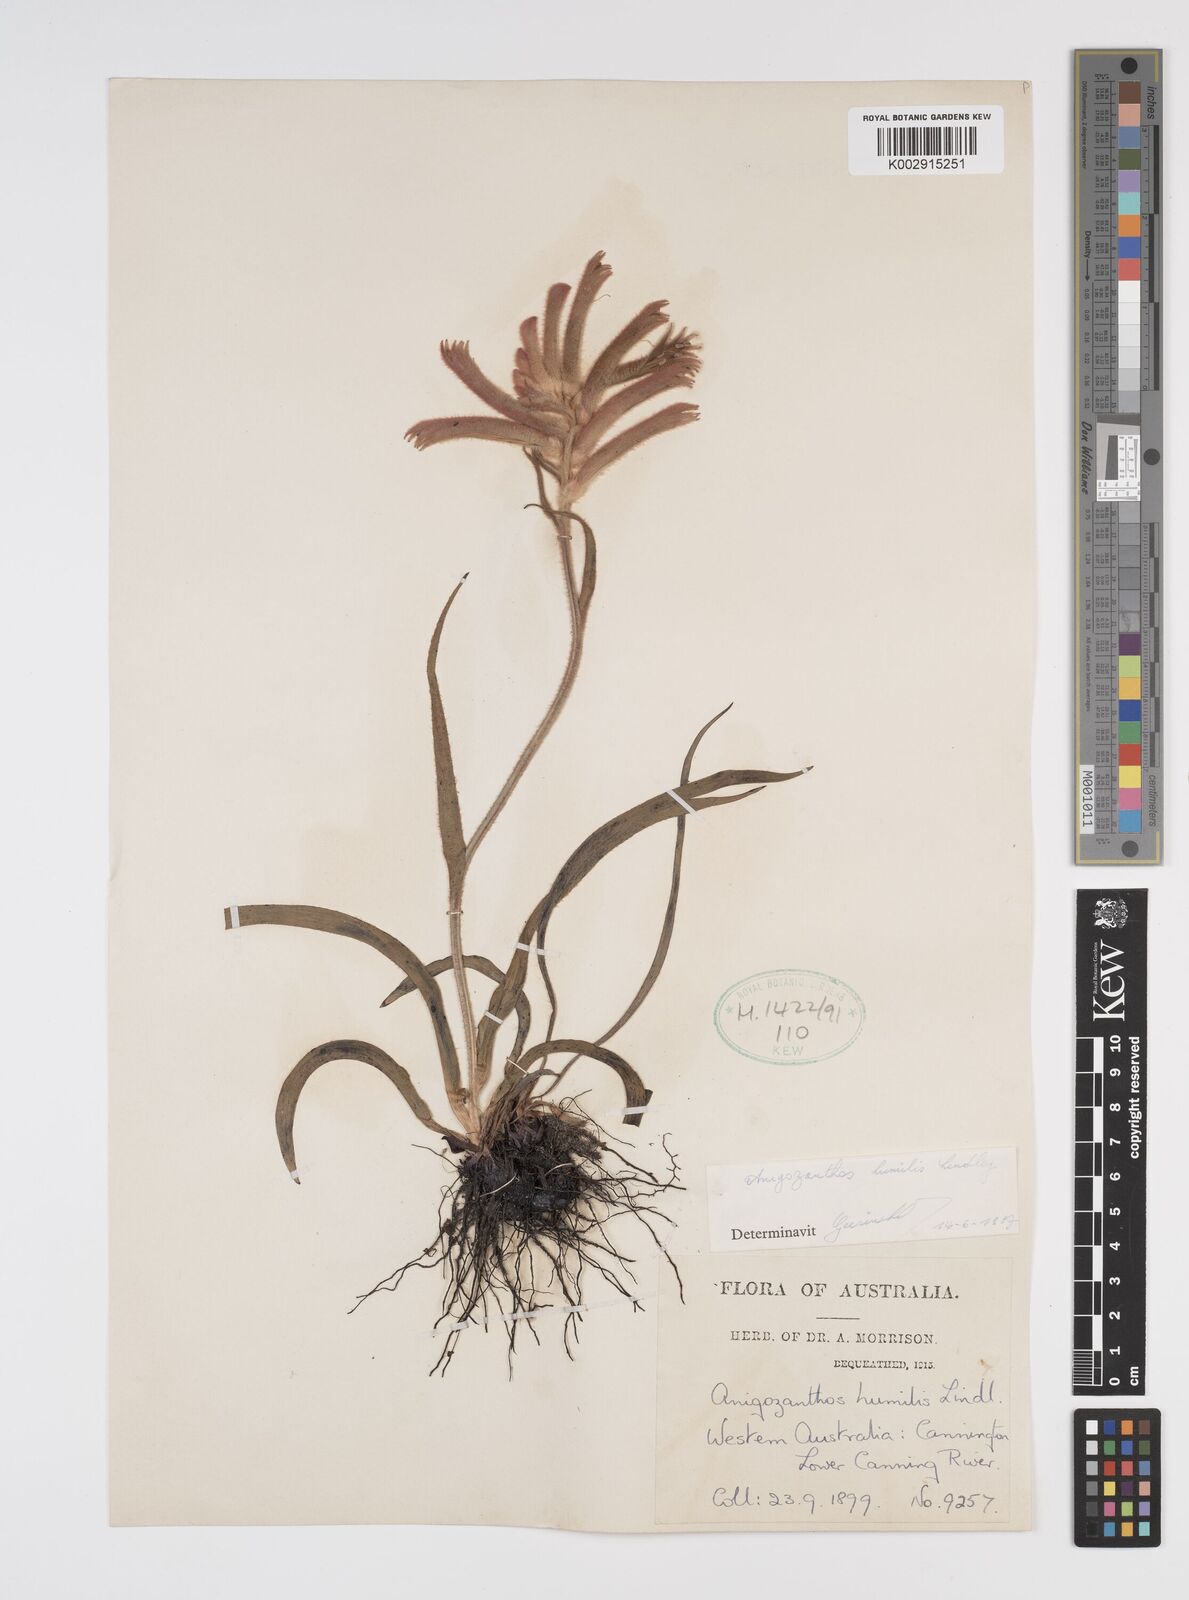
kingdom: Plantae
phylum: Tracheophyta
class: Liliopsida
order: Commelinales
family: Haemodoraceae
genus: Anigozanthos
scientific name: Anigozanthos humilis
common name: Cat's-paw
